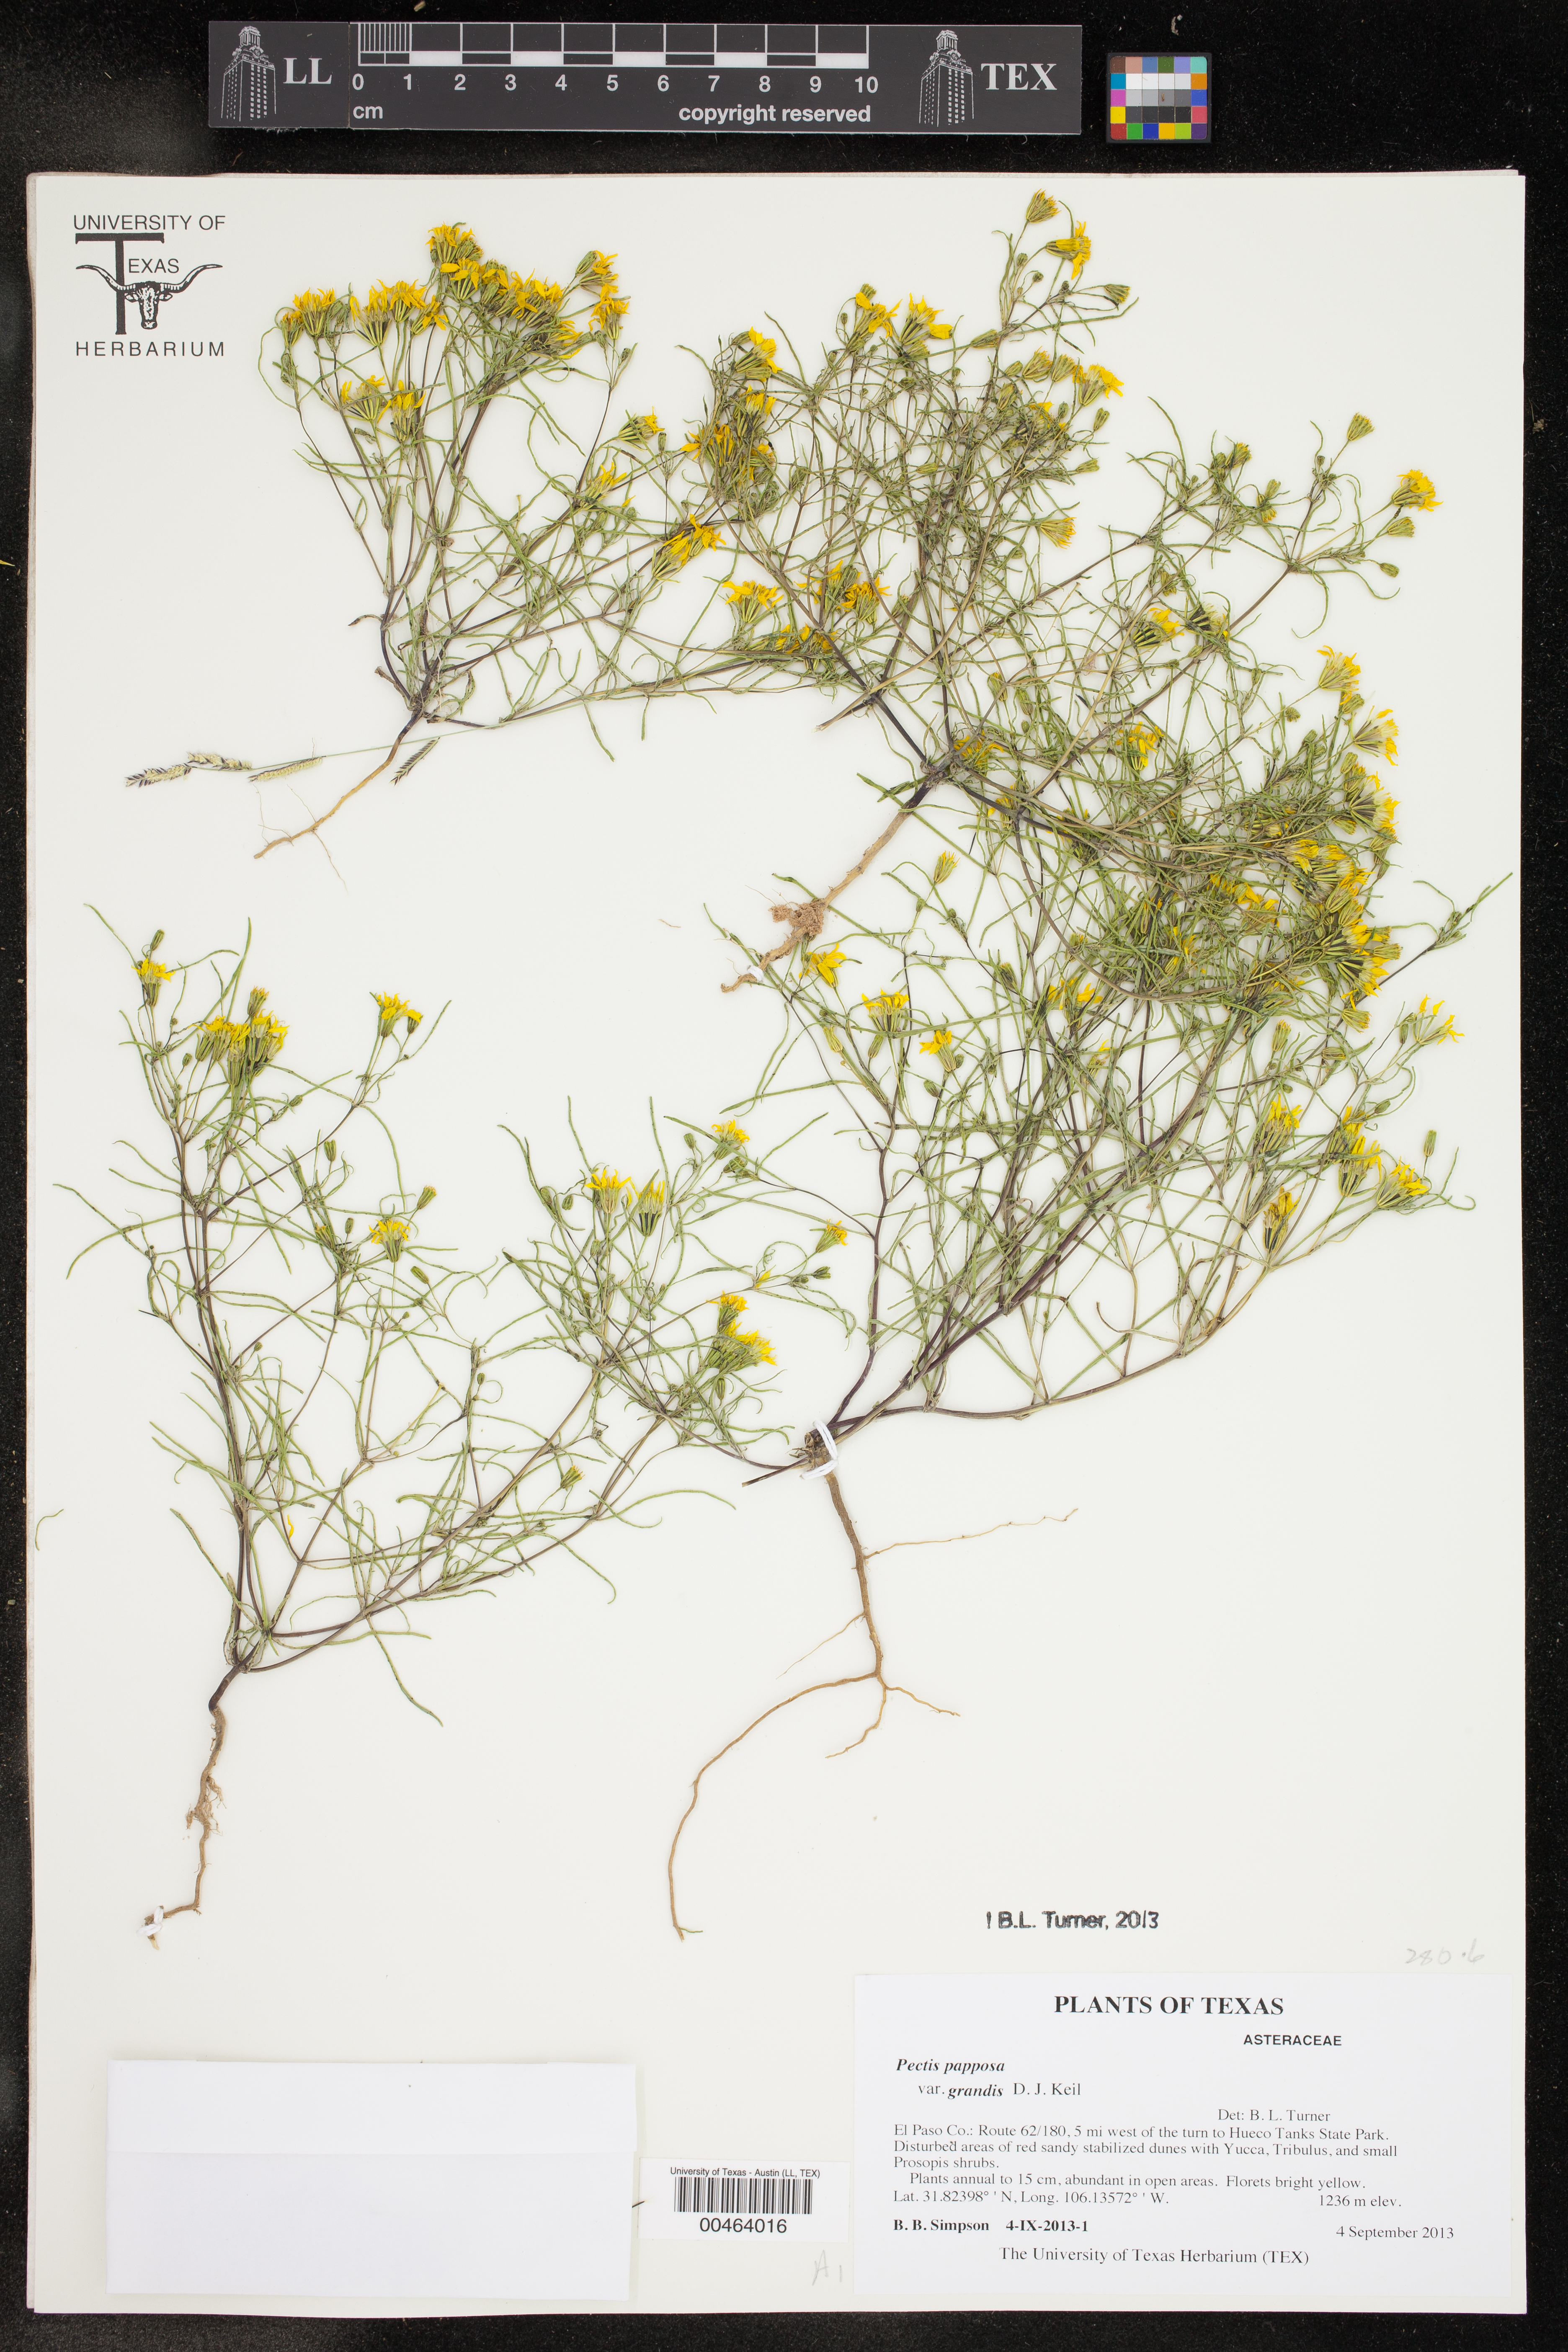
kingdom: Plantae
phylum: Tracheophyta
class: Magnoliopsida
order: Asterales
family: Asteraceae
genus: Pectis
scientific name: Pectis papposa
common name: Many-bristle chinchweed
